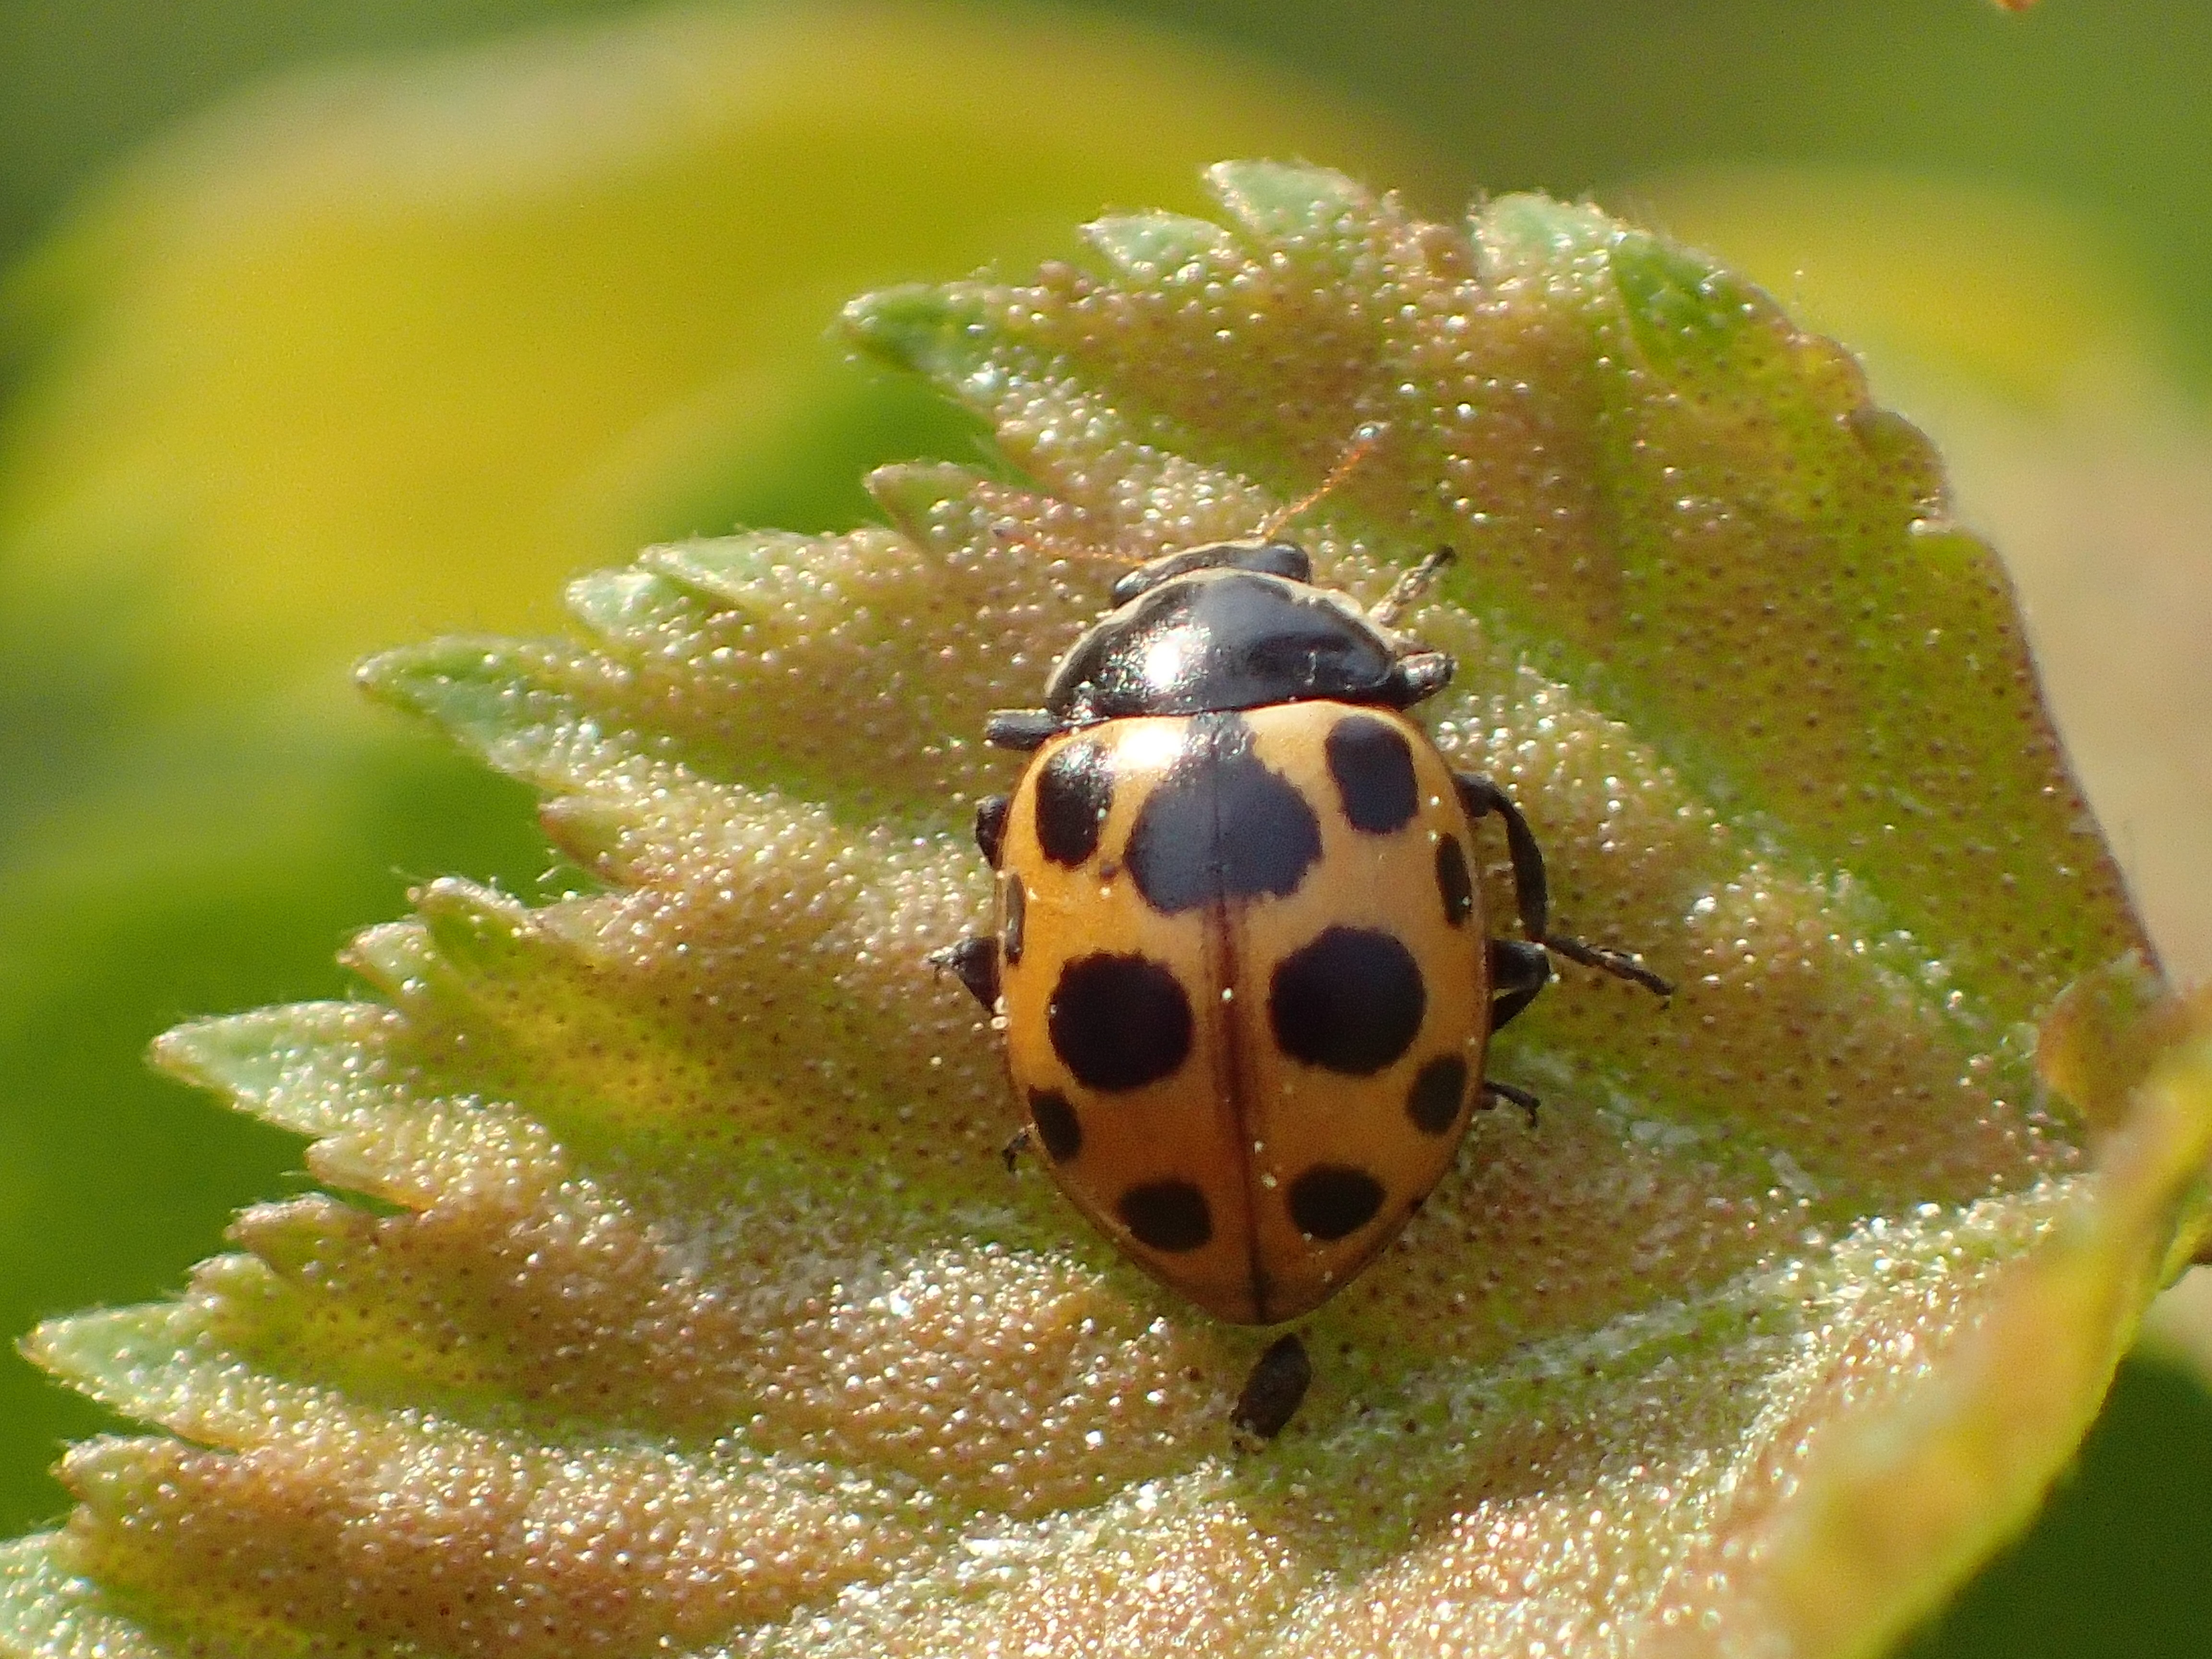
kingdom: Animalia
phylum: Arthropoda
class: Insecta
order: Coleoptera
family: Coccinellidae
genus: Ceratomegilla
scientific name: Ceratomegilla notata
